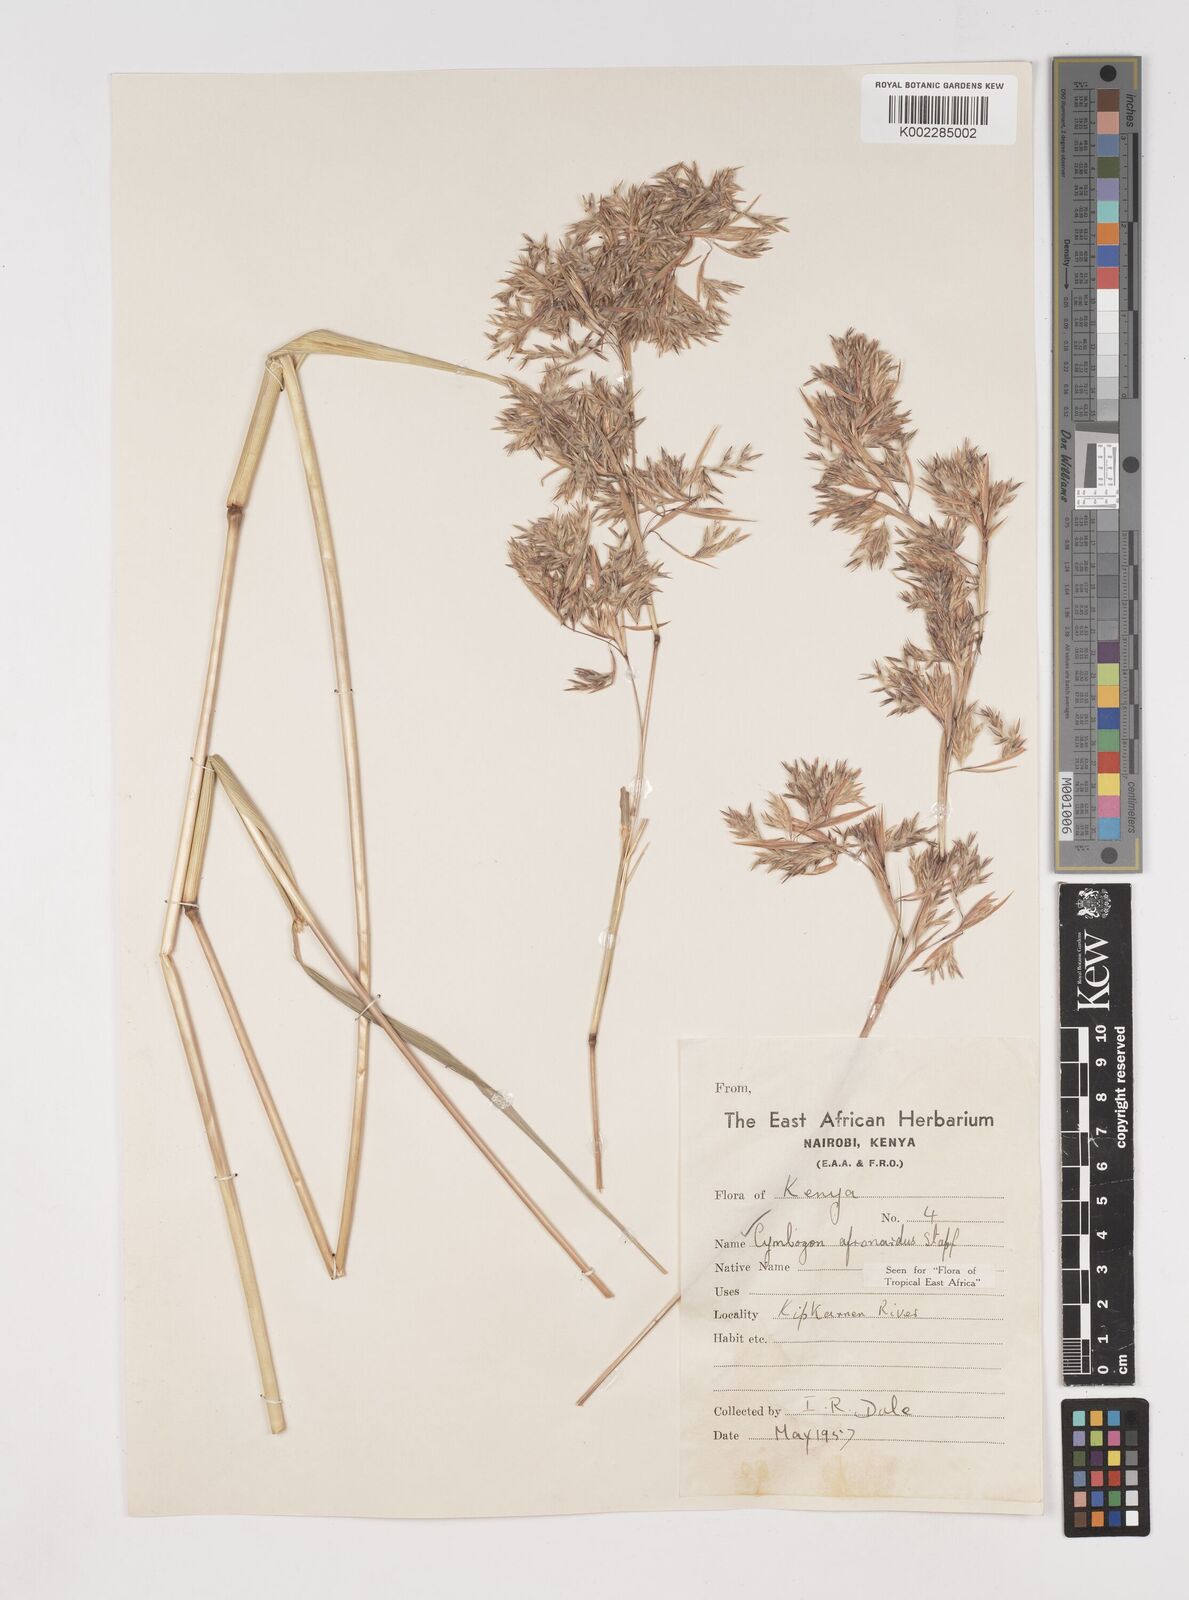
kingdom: Plantae
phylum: Tracheophyta
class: Liliopsida
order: Poales
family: Poaceae
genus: Cymbopogon
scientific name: Cymbopogon nardus
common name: Giant turpentine grass
